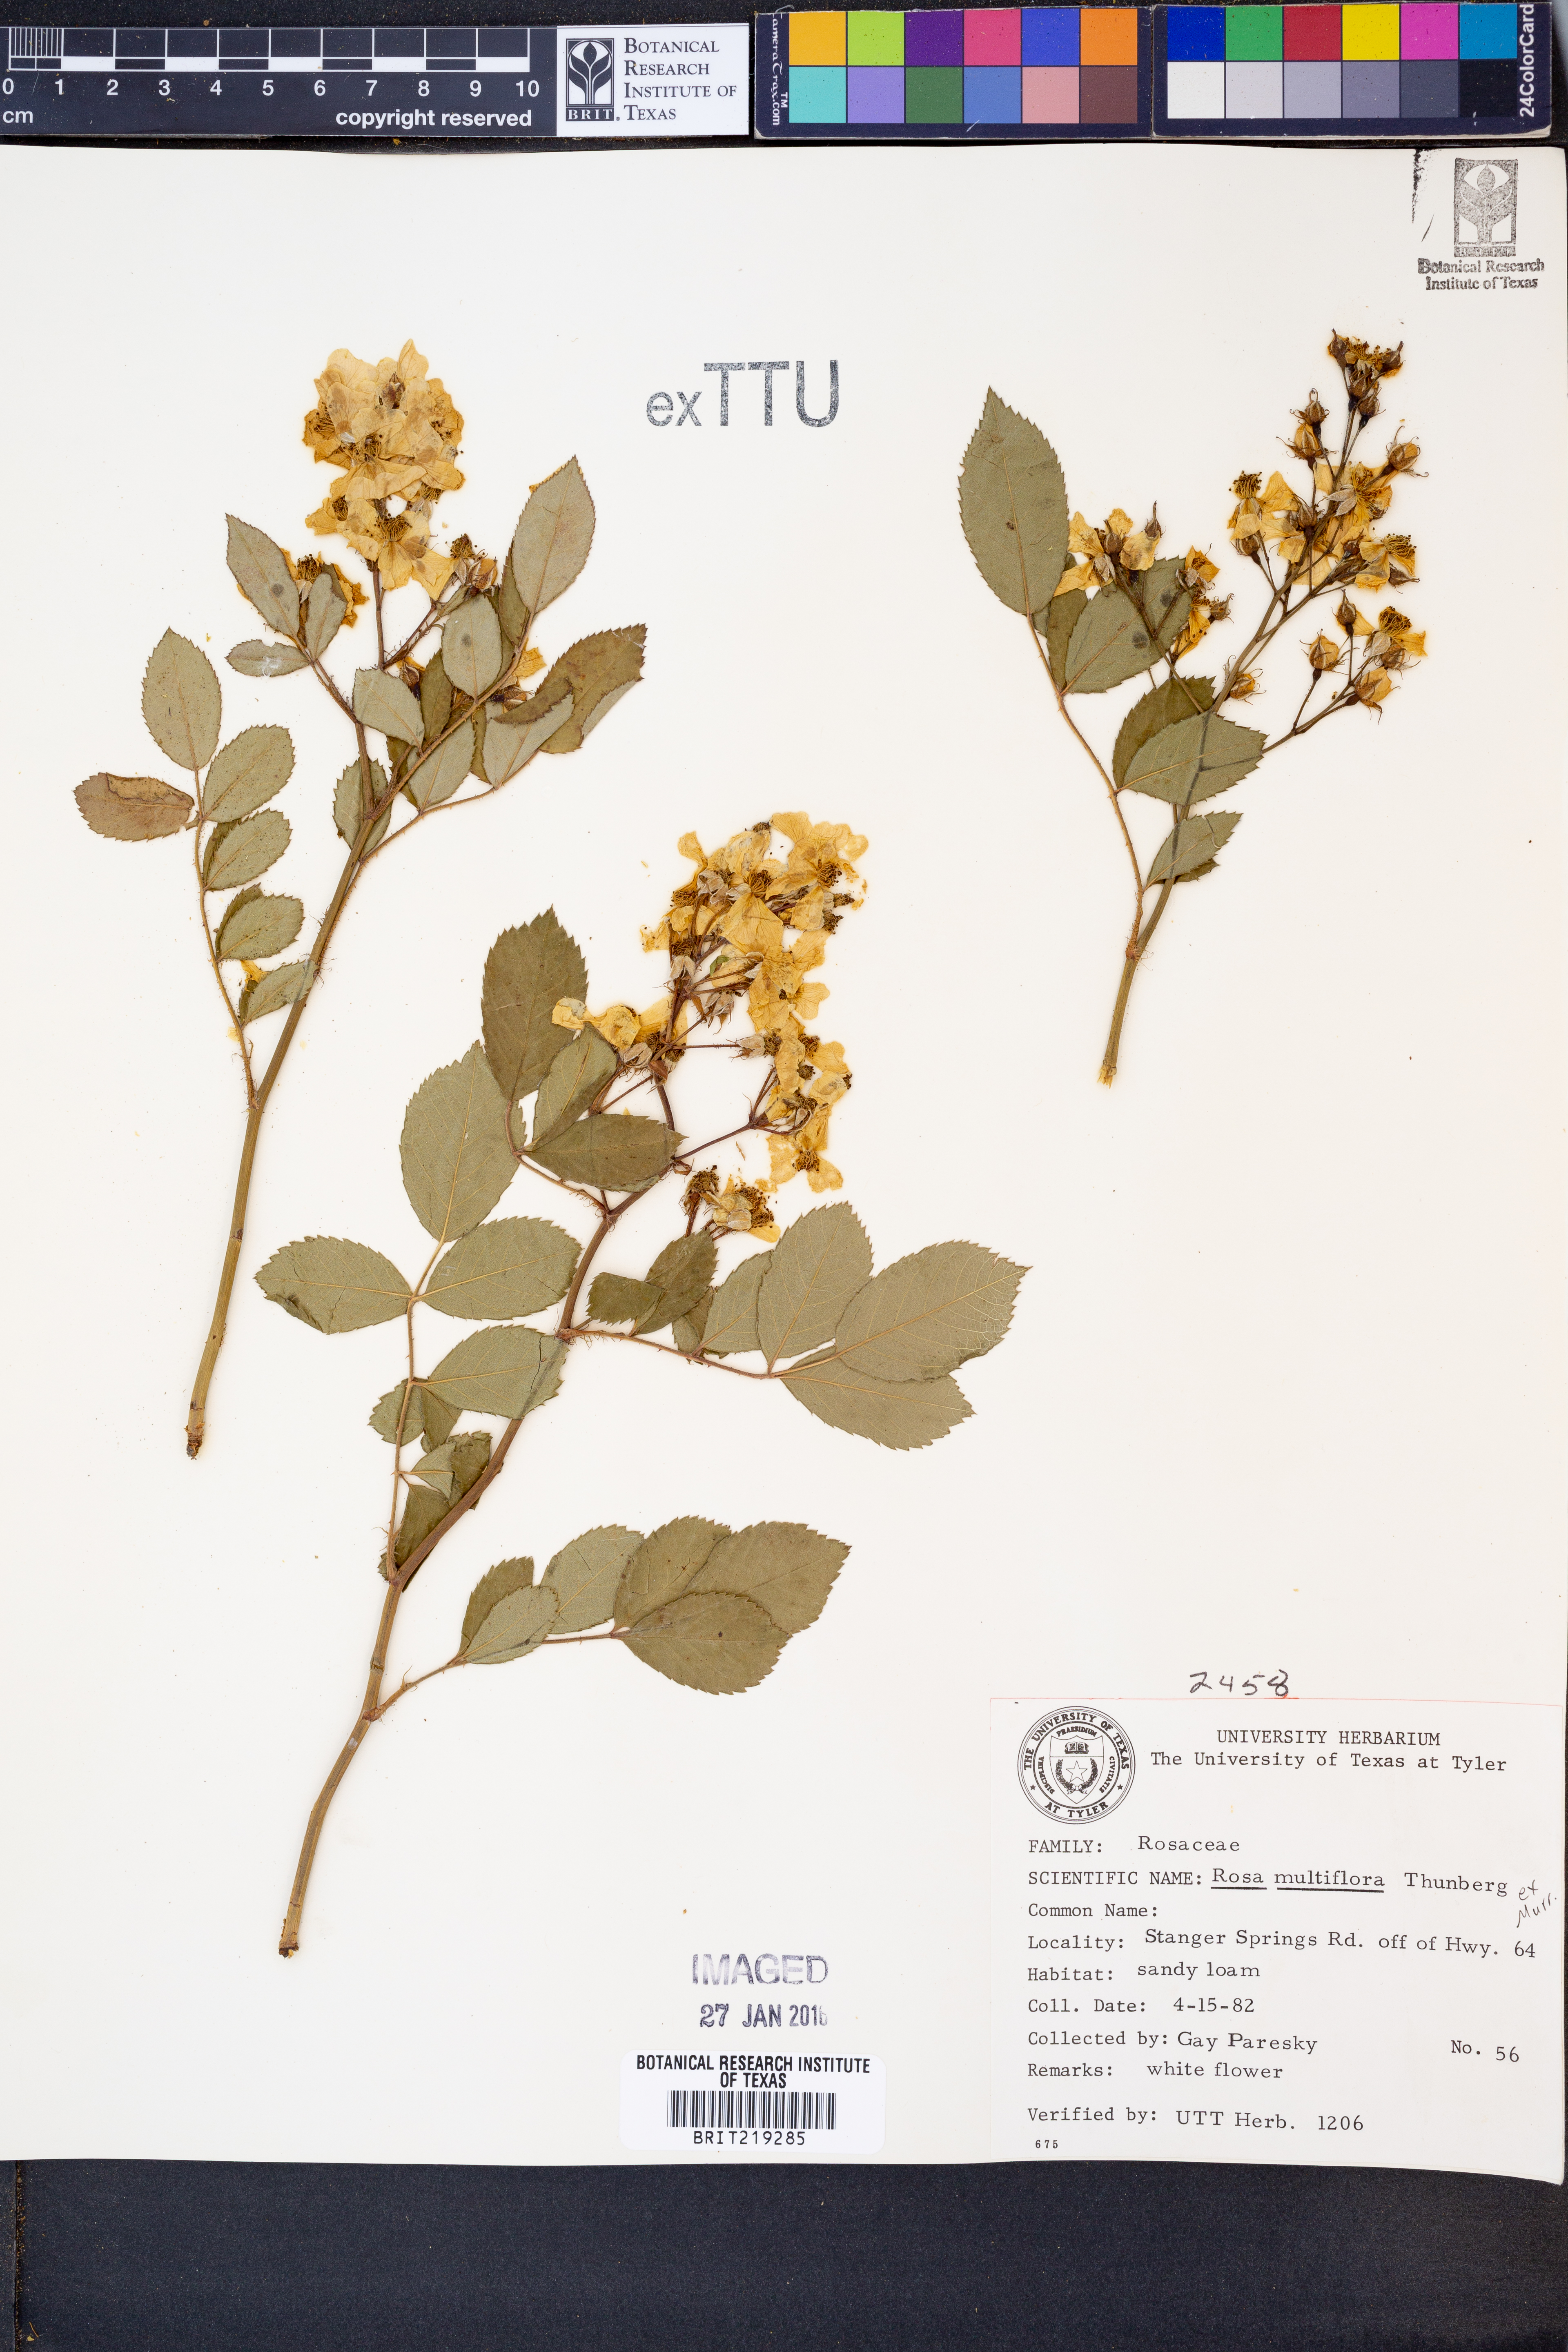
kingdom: Plantae
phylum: Tracheophyta
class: Magnoliopsida
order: Rosales
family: Rosaceae
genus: Rosa
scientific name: Rosa multiflora
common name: Multiflora rose
